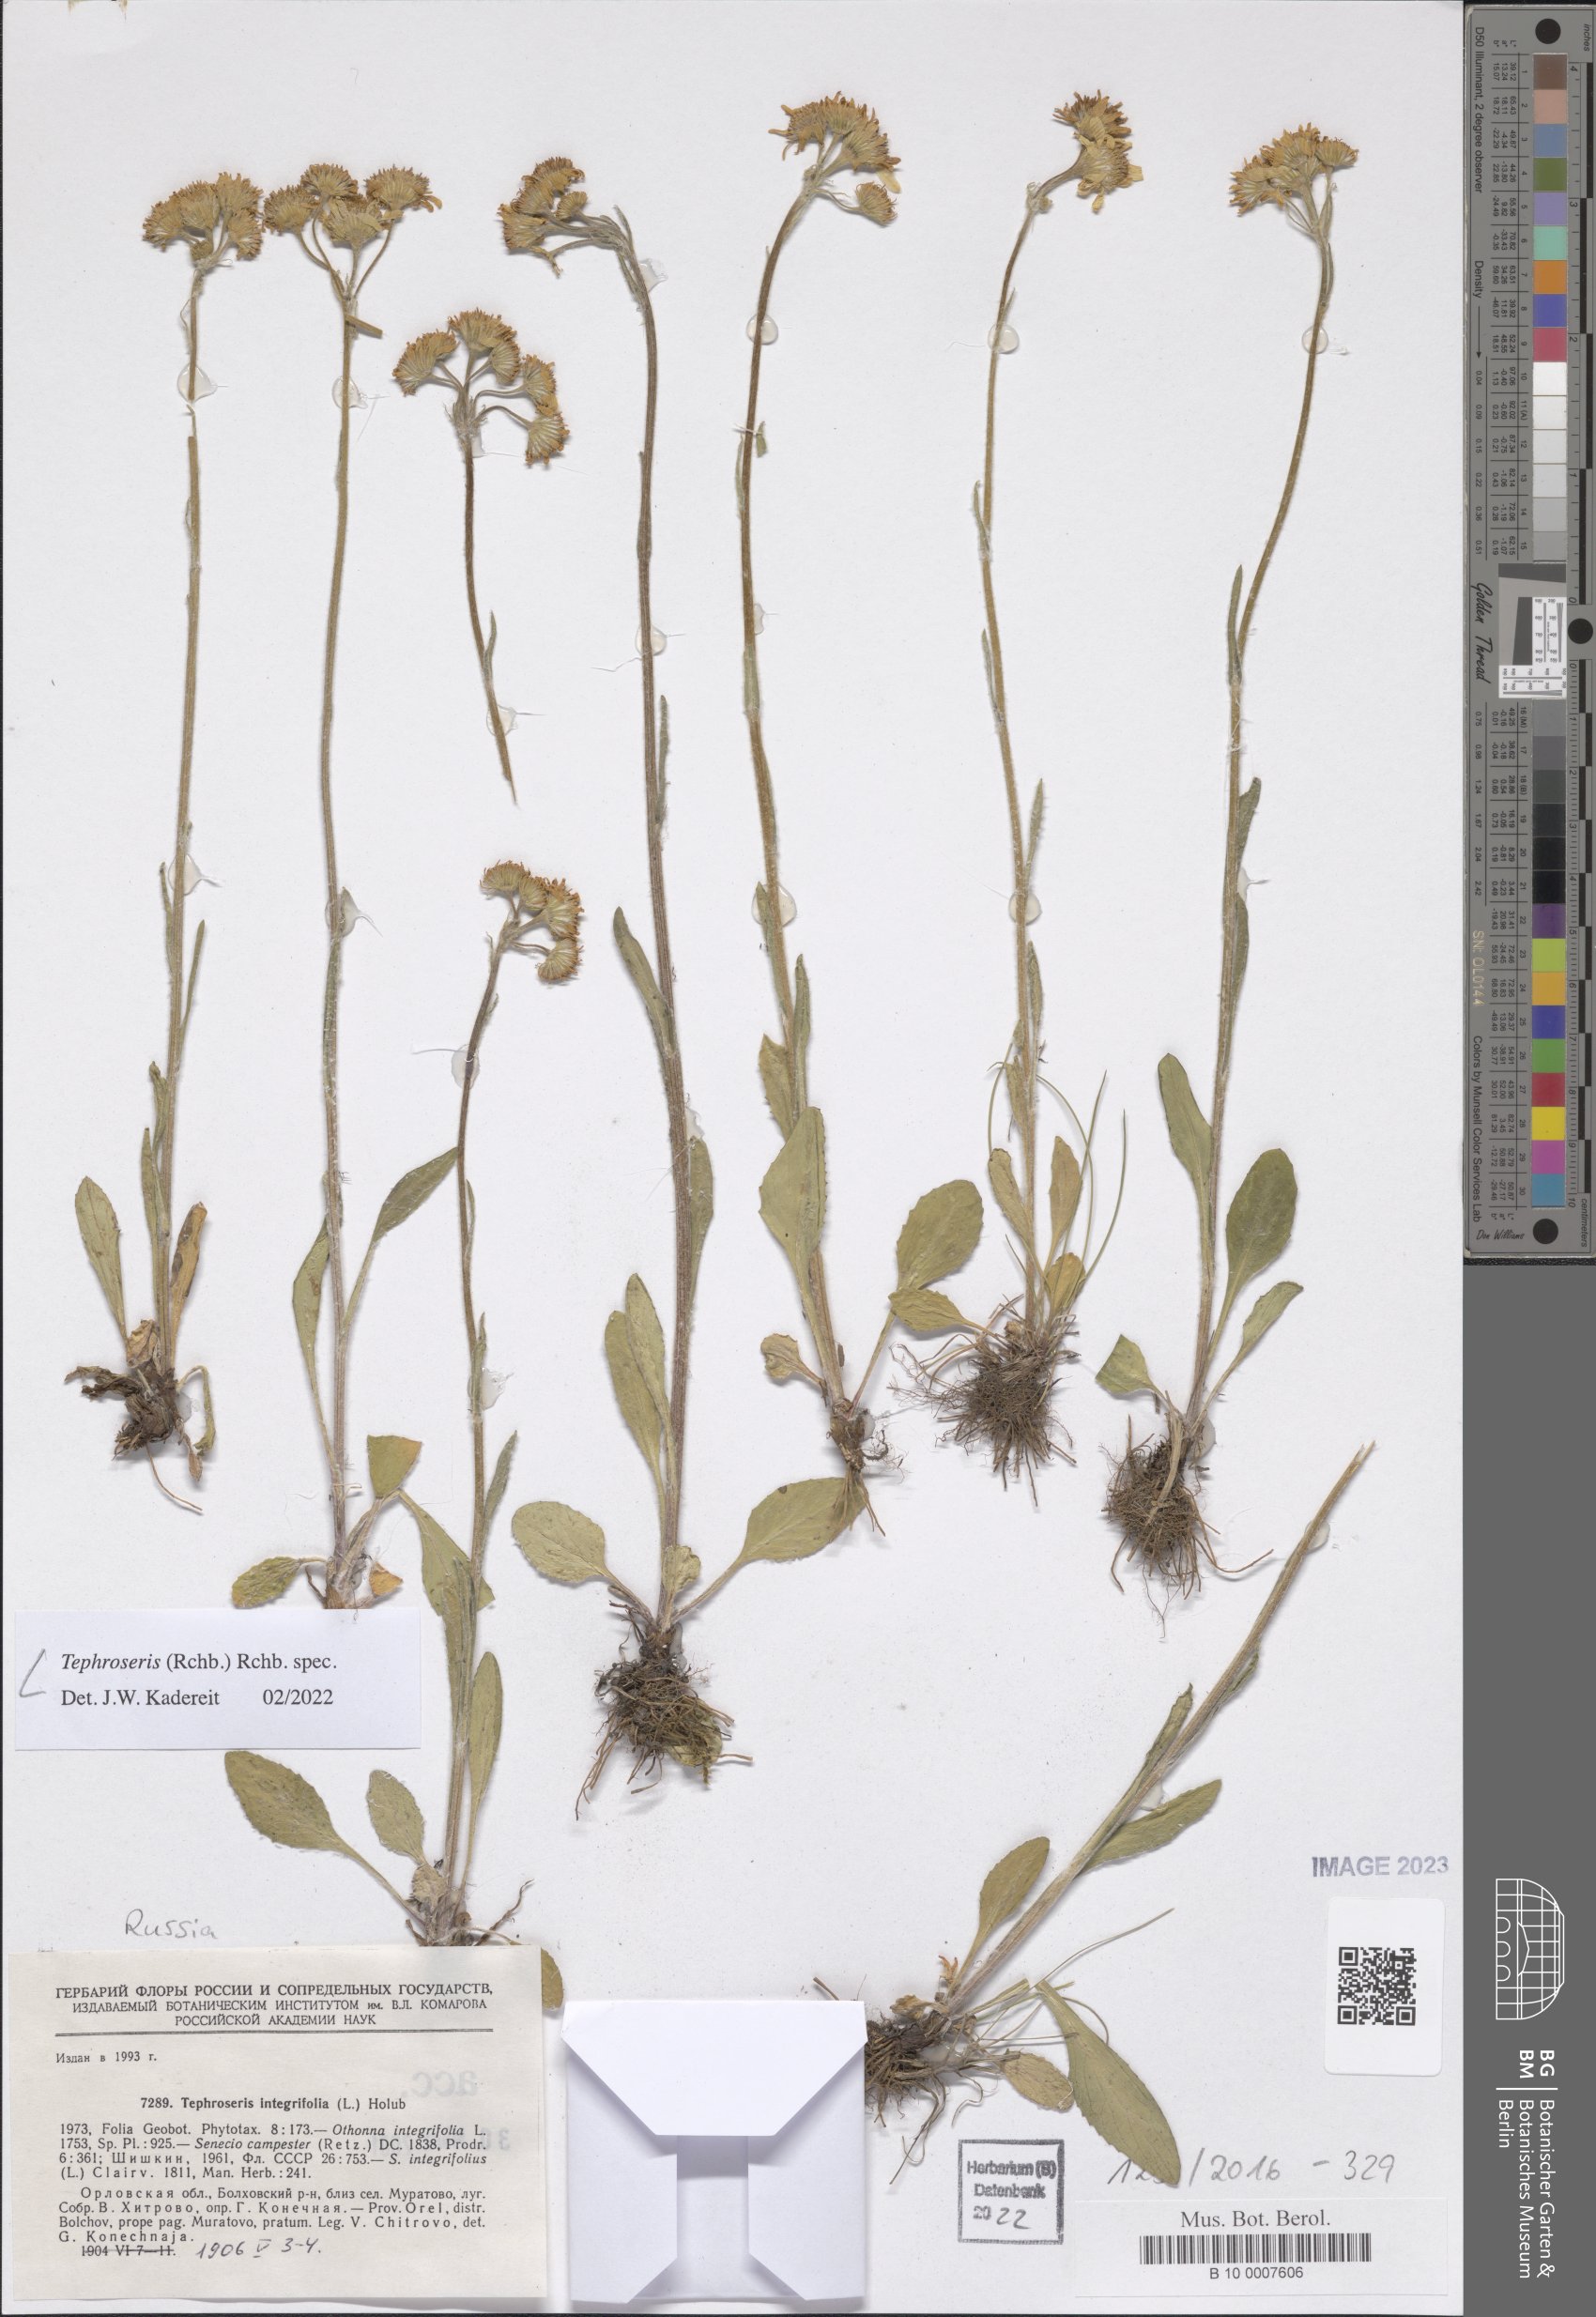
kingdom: Plantae
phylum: Tracheophyta
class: Magnoliopsida
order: Asterales
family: Asteraceae
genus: Tephroseris
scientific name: Tephroseris
